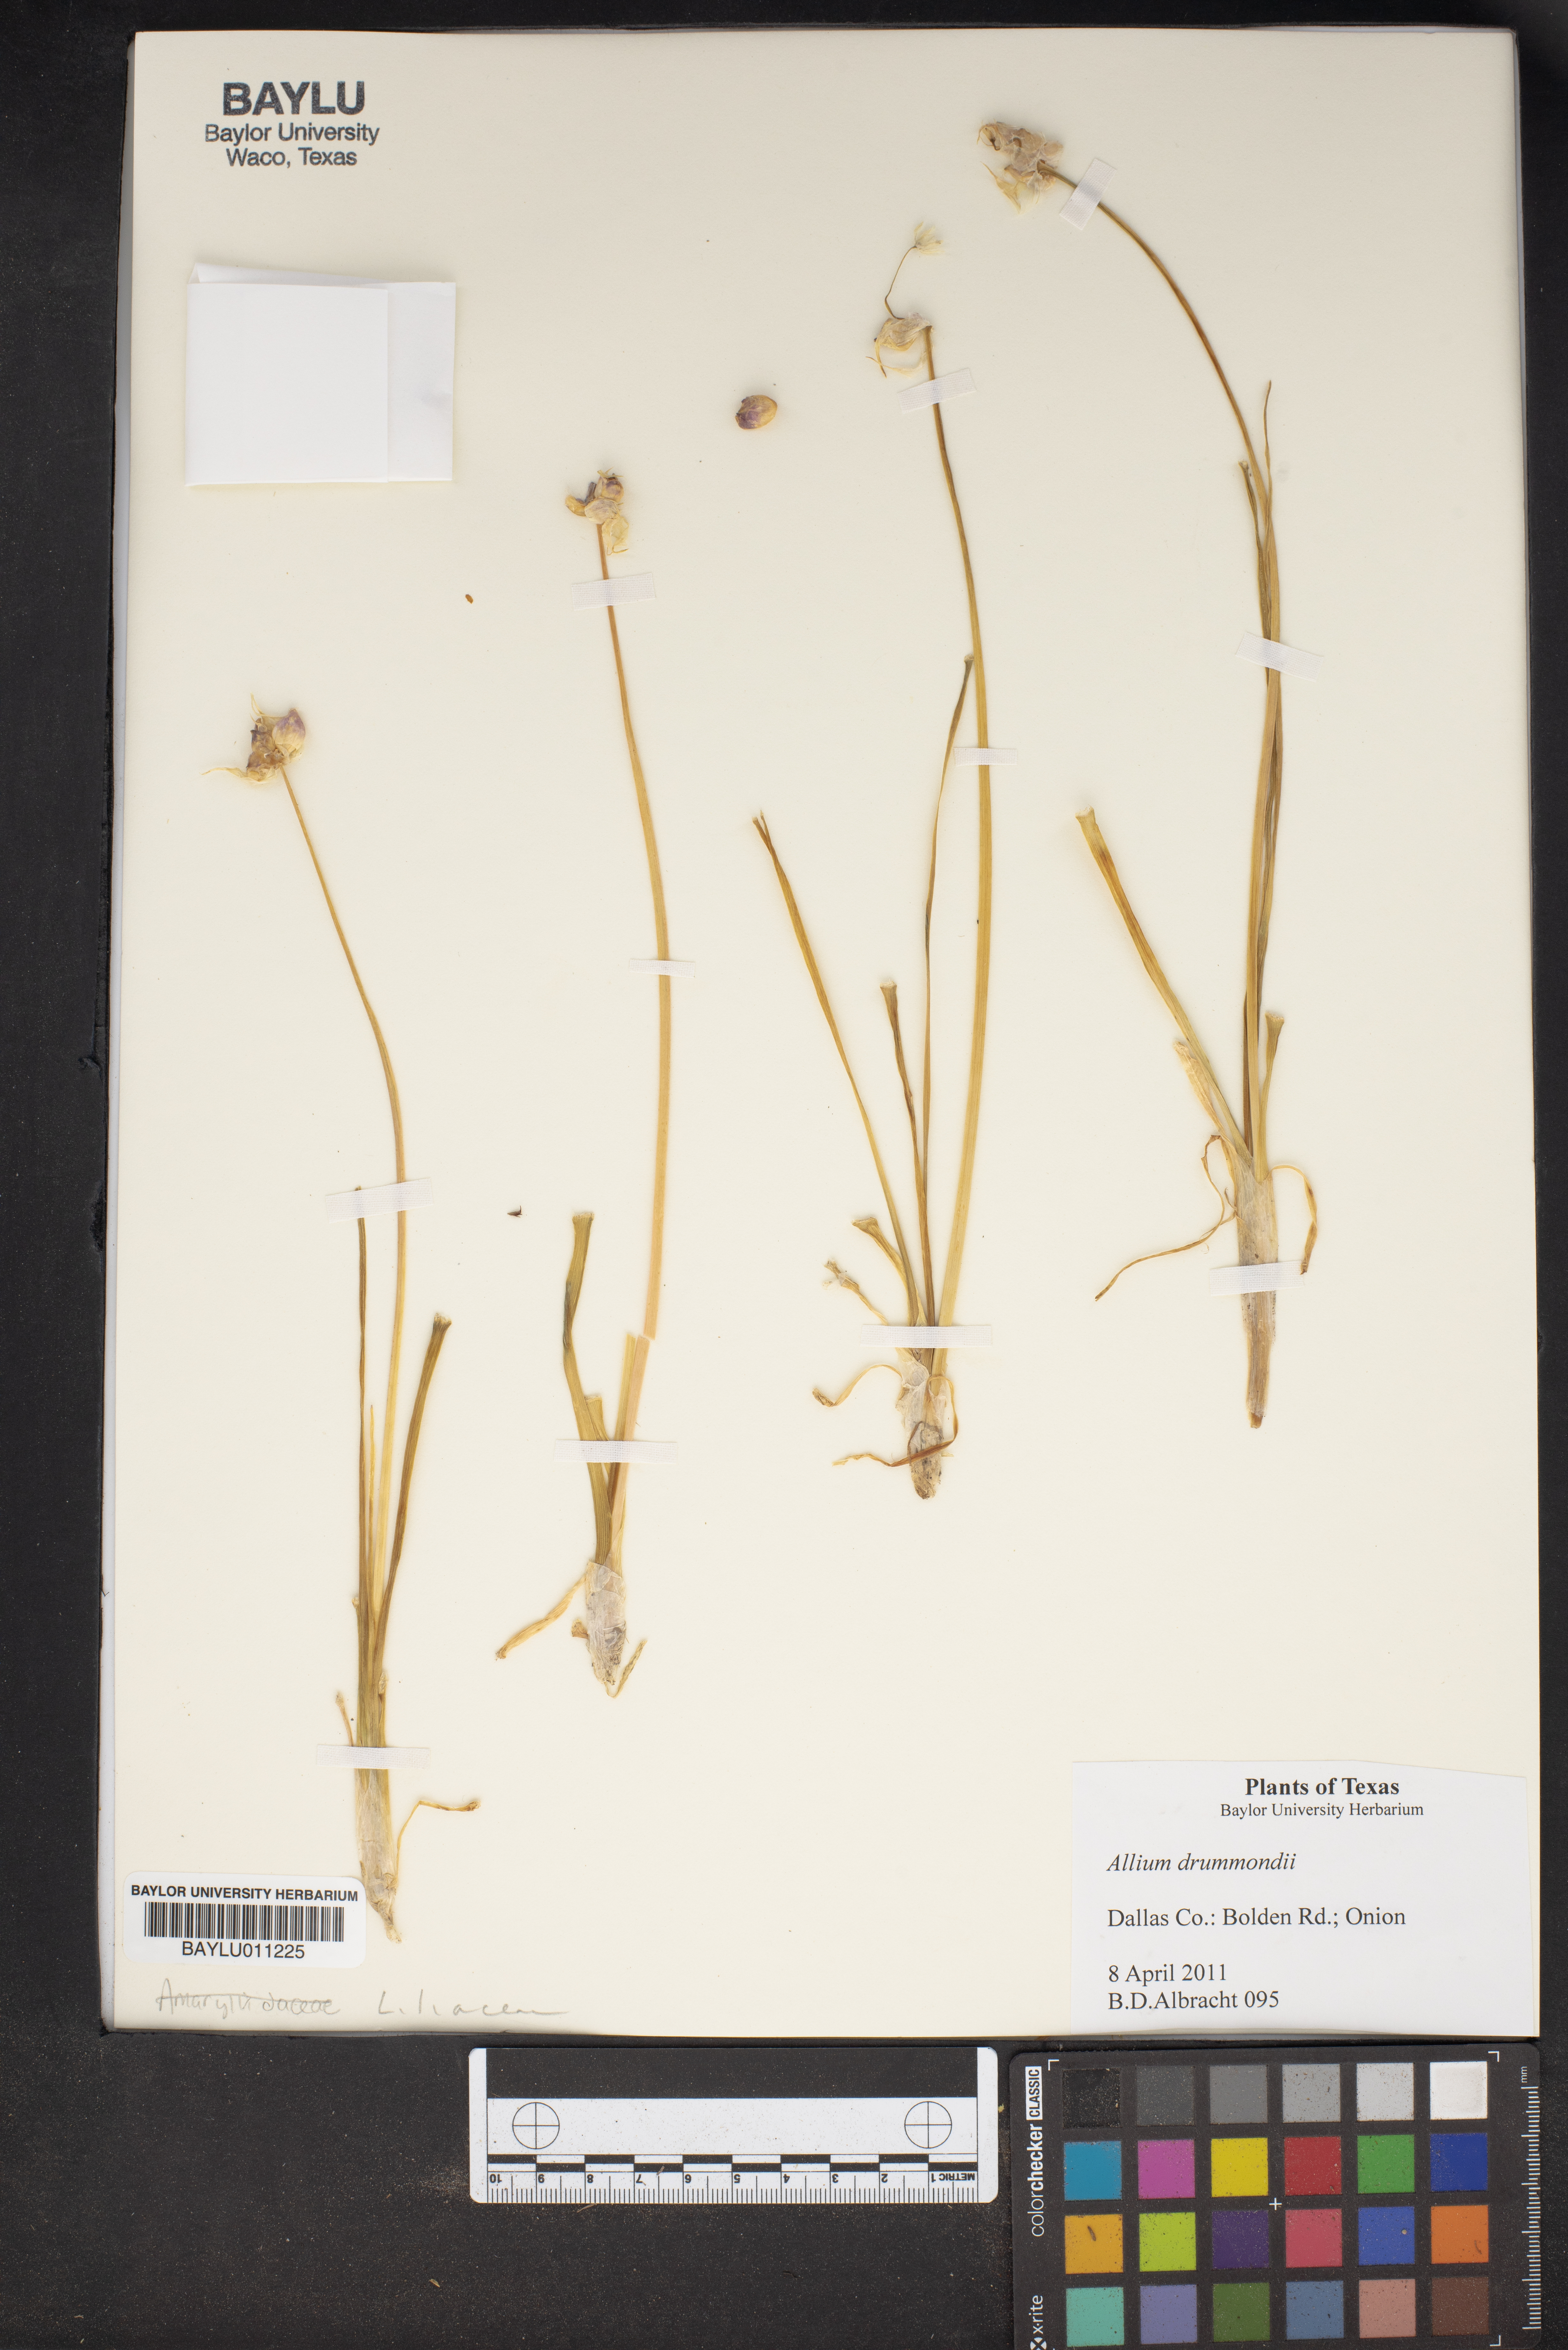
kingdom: Plantae
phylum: Tracheophyta
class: Liliopsida
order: Asparagales
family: Amaryllidaceae
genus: Allium
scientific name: Allium drummondii
